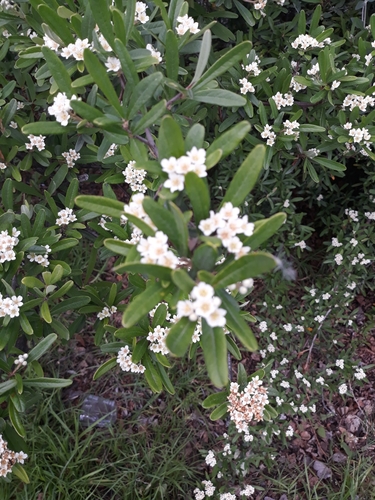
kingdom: Plantae
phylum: Tracheophyta
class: Magnoliopsida
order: Rosales
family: Rosaceae
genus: Pyracantha
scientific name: Pyracantha angustifolia
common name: Narrowleaf firethorn
